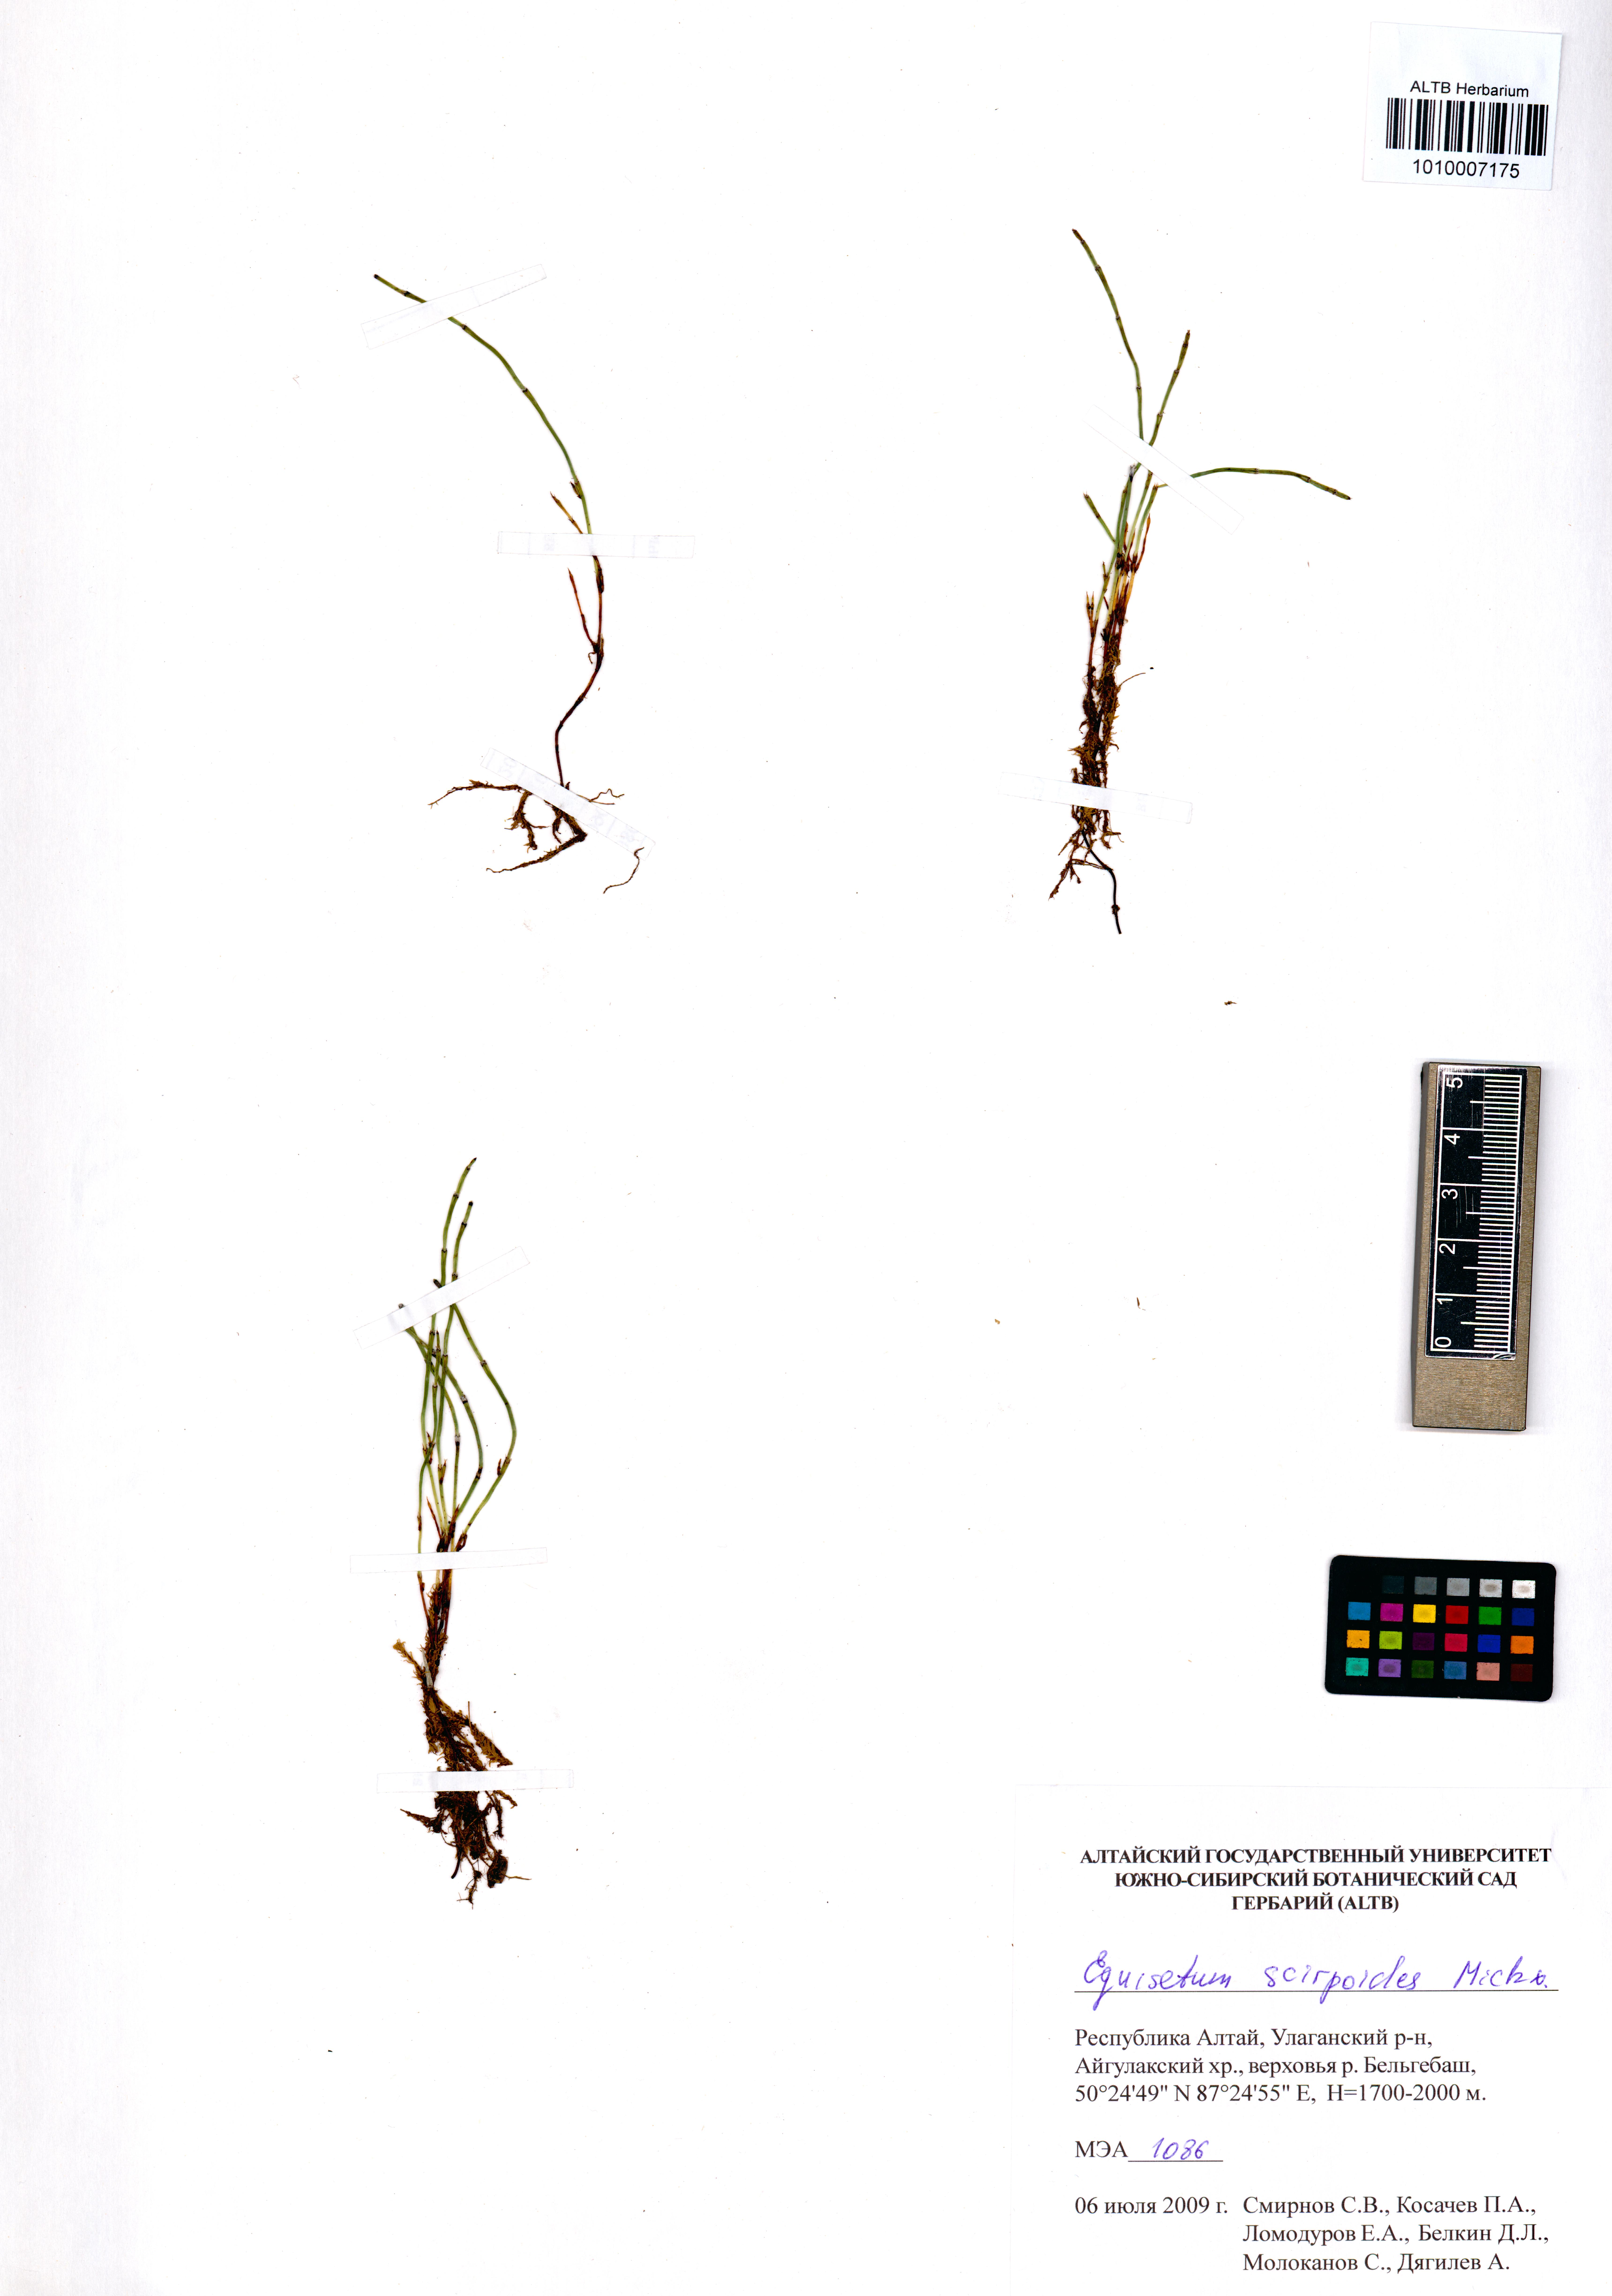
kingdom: Plantae
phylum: Tracheophyta
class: Polypodiopsida
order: Equisetales
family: Equisetaceae
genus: Equisetum
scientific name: Equisetum scirpoides
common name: Delicate horsetail
